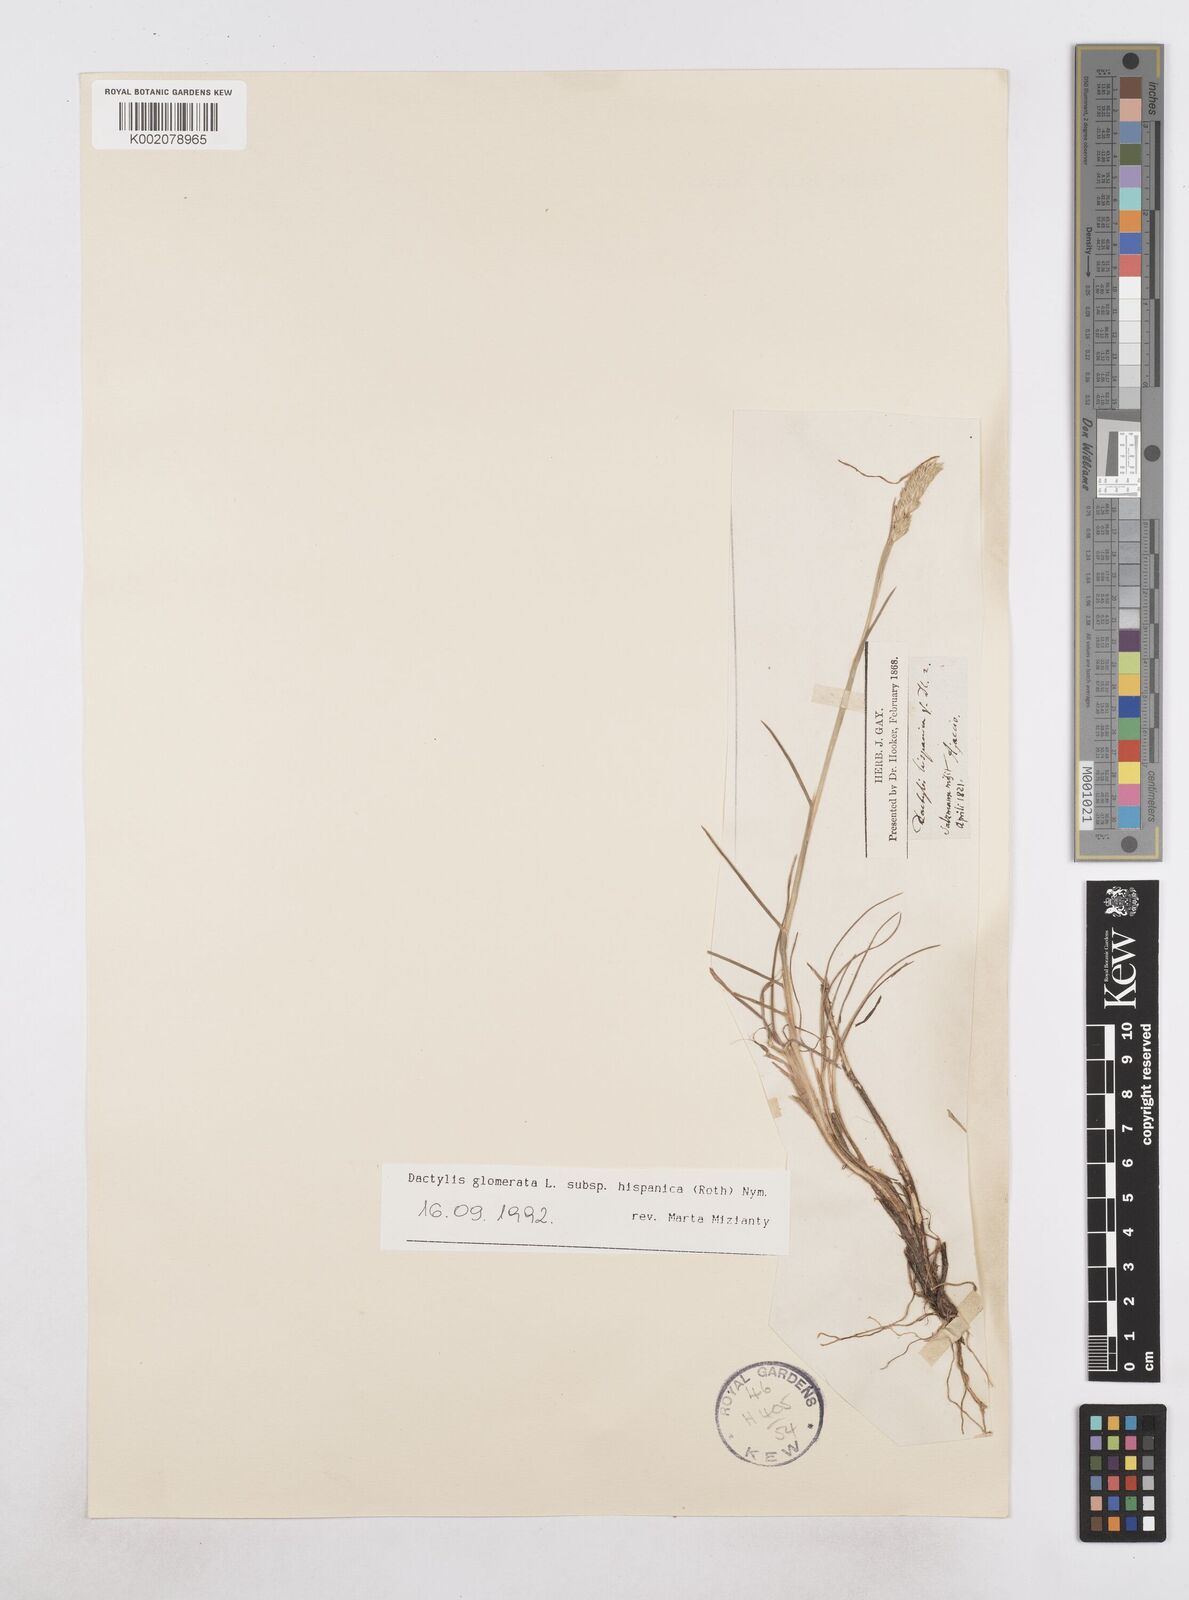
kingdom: Plantae
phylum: Tracheophyta
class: Liliopsida
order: Poales
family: Poaceae
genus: Dactylis
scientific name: Dactylis glomerata
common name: Orchardgrass
